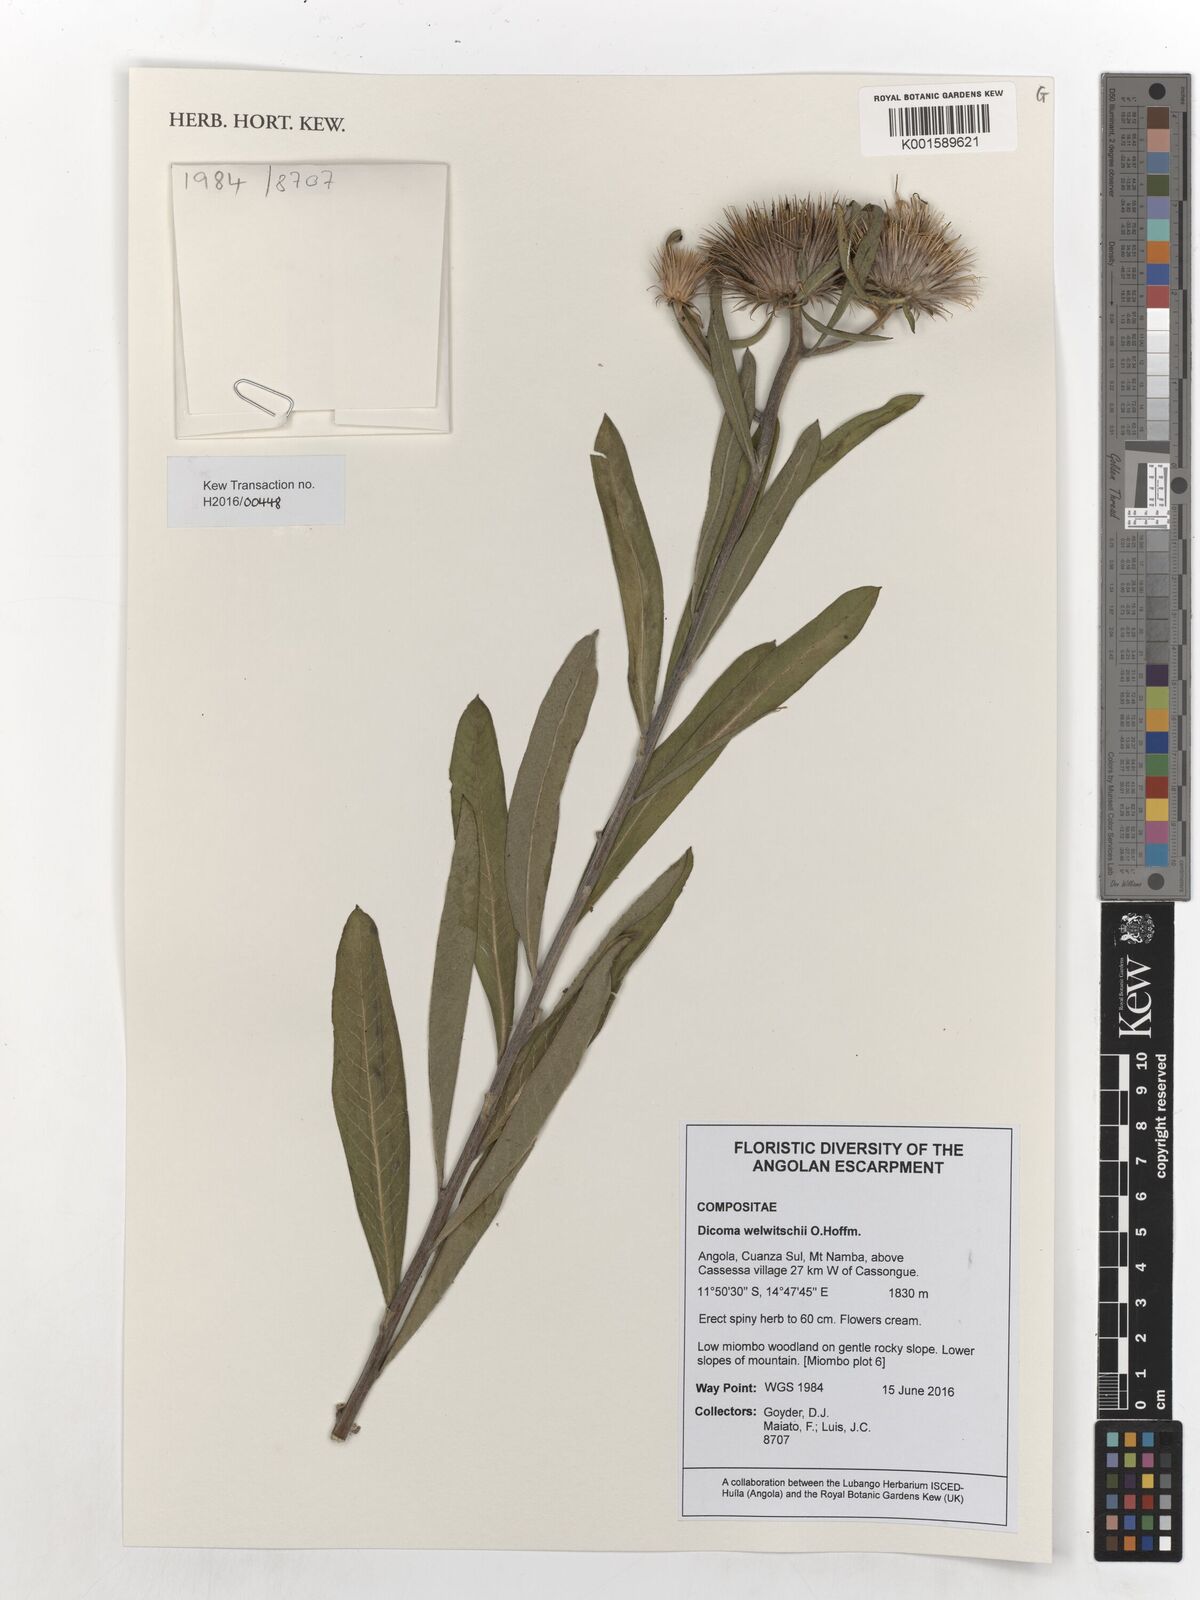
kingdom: Plantae
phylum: Tracheophyta
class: Magnoliopsida
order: Asterales
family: Asteraceae
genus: Dicomopsis
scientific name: Dicomopsis welwitschii
